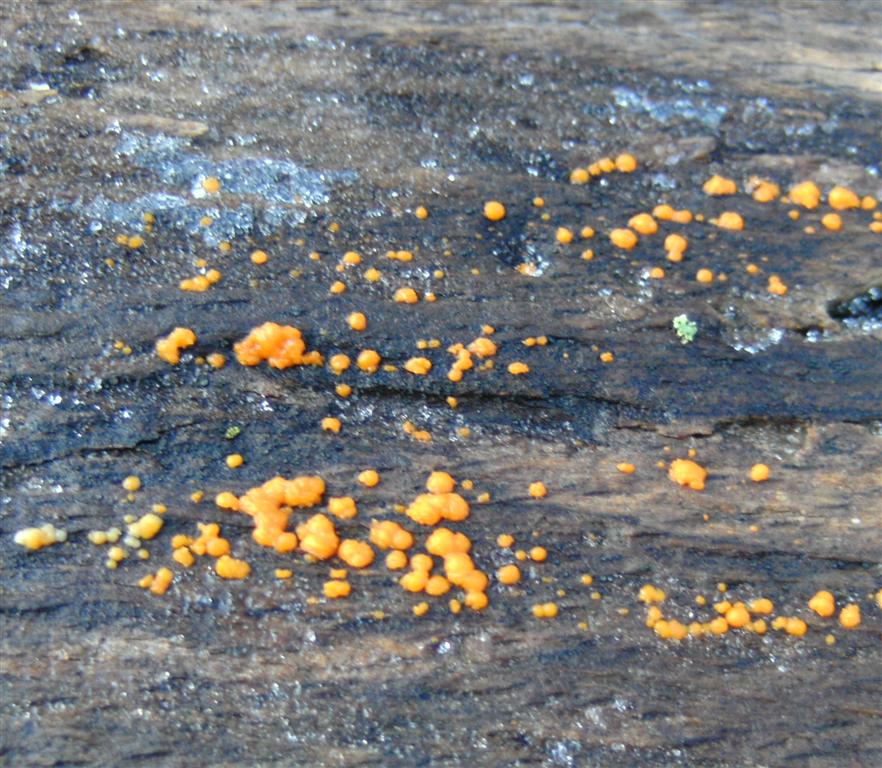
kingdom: Fungi
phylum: Basidiomycota
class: Dacrymycetes
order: Dacrymycetales
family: Dacrymycetaceae
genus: Dacrymyces
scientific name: Dacrymyces stillatus
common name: almindelig tåresvamp
